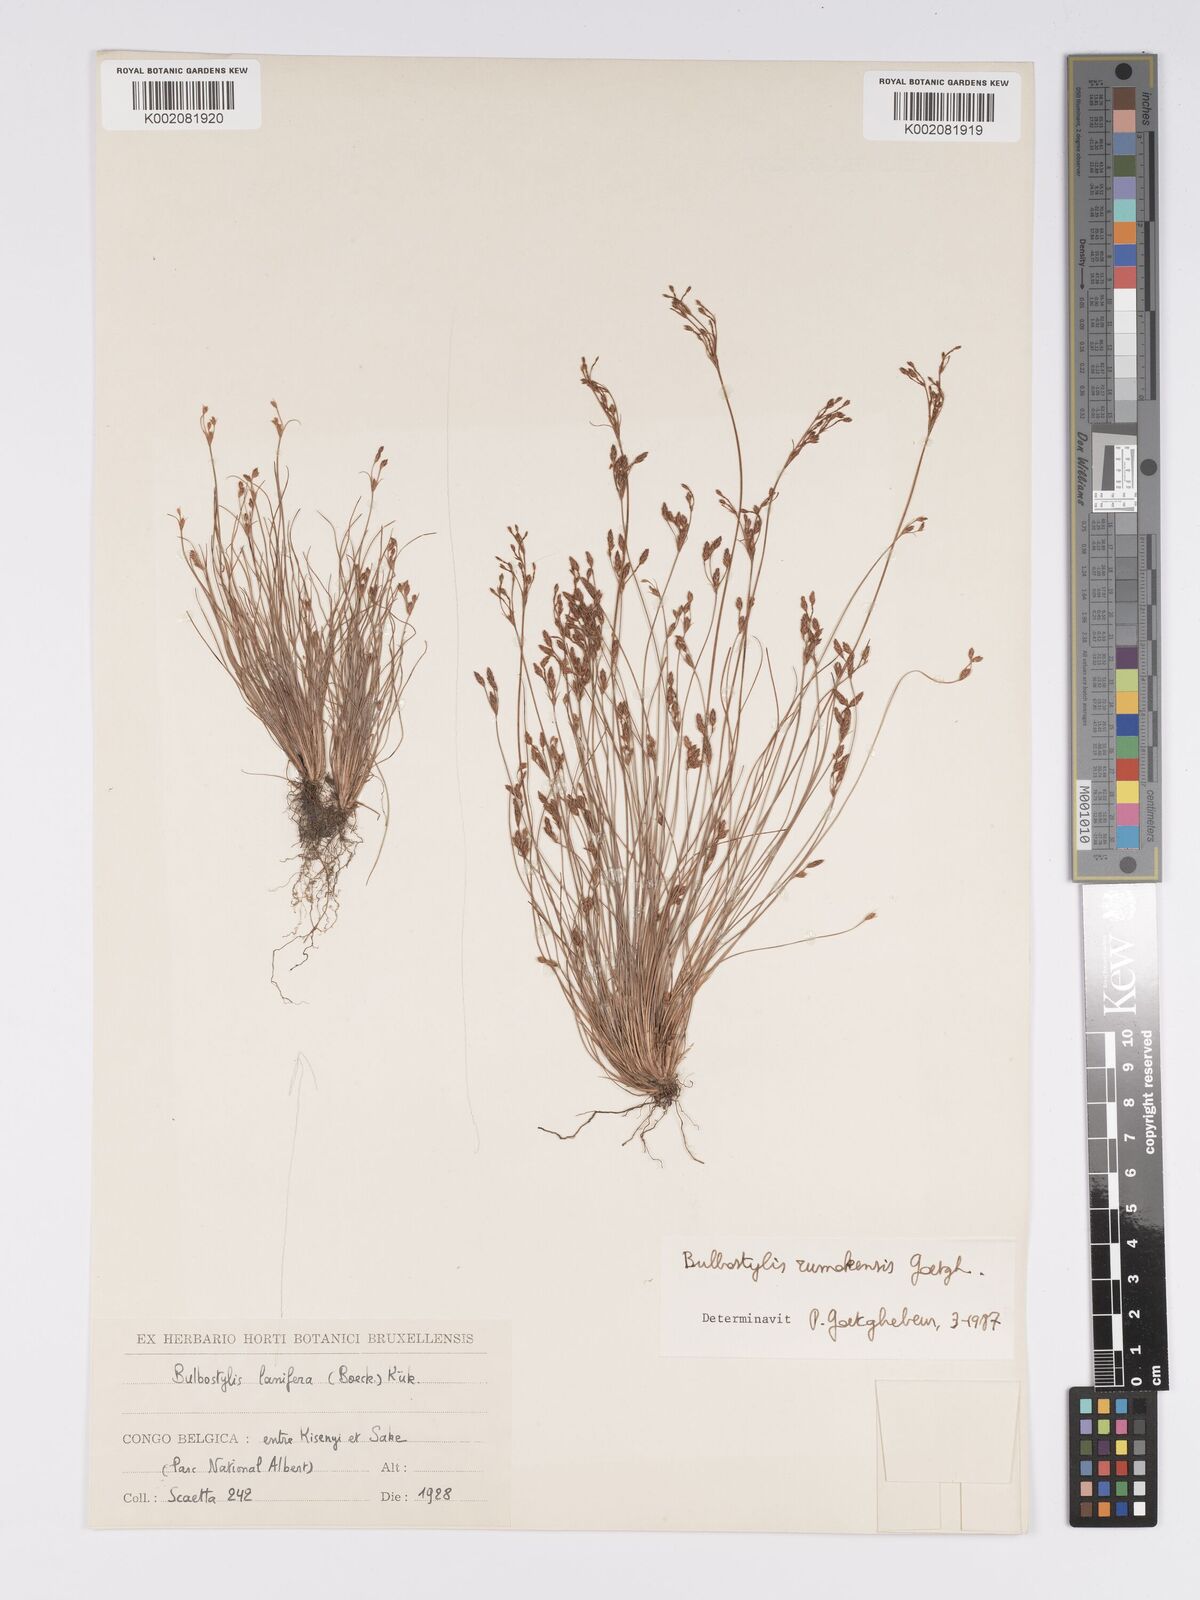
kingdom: Plantae
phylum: Tracheophyta
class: Liliopsida
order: Poales
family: Cyperaceae
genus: Bulbostylis
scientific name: Bulbostylis rumokensis
